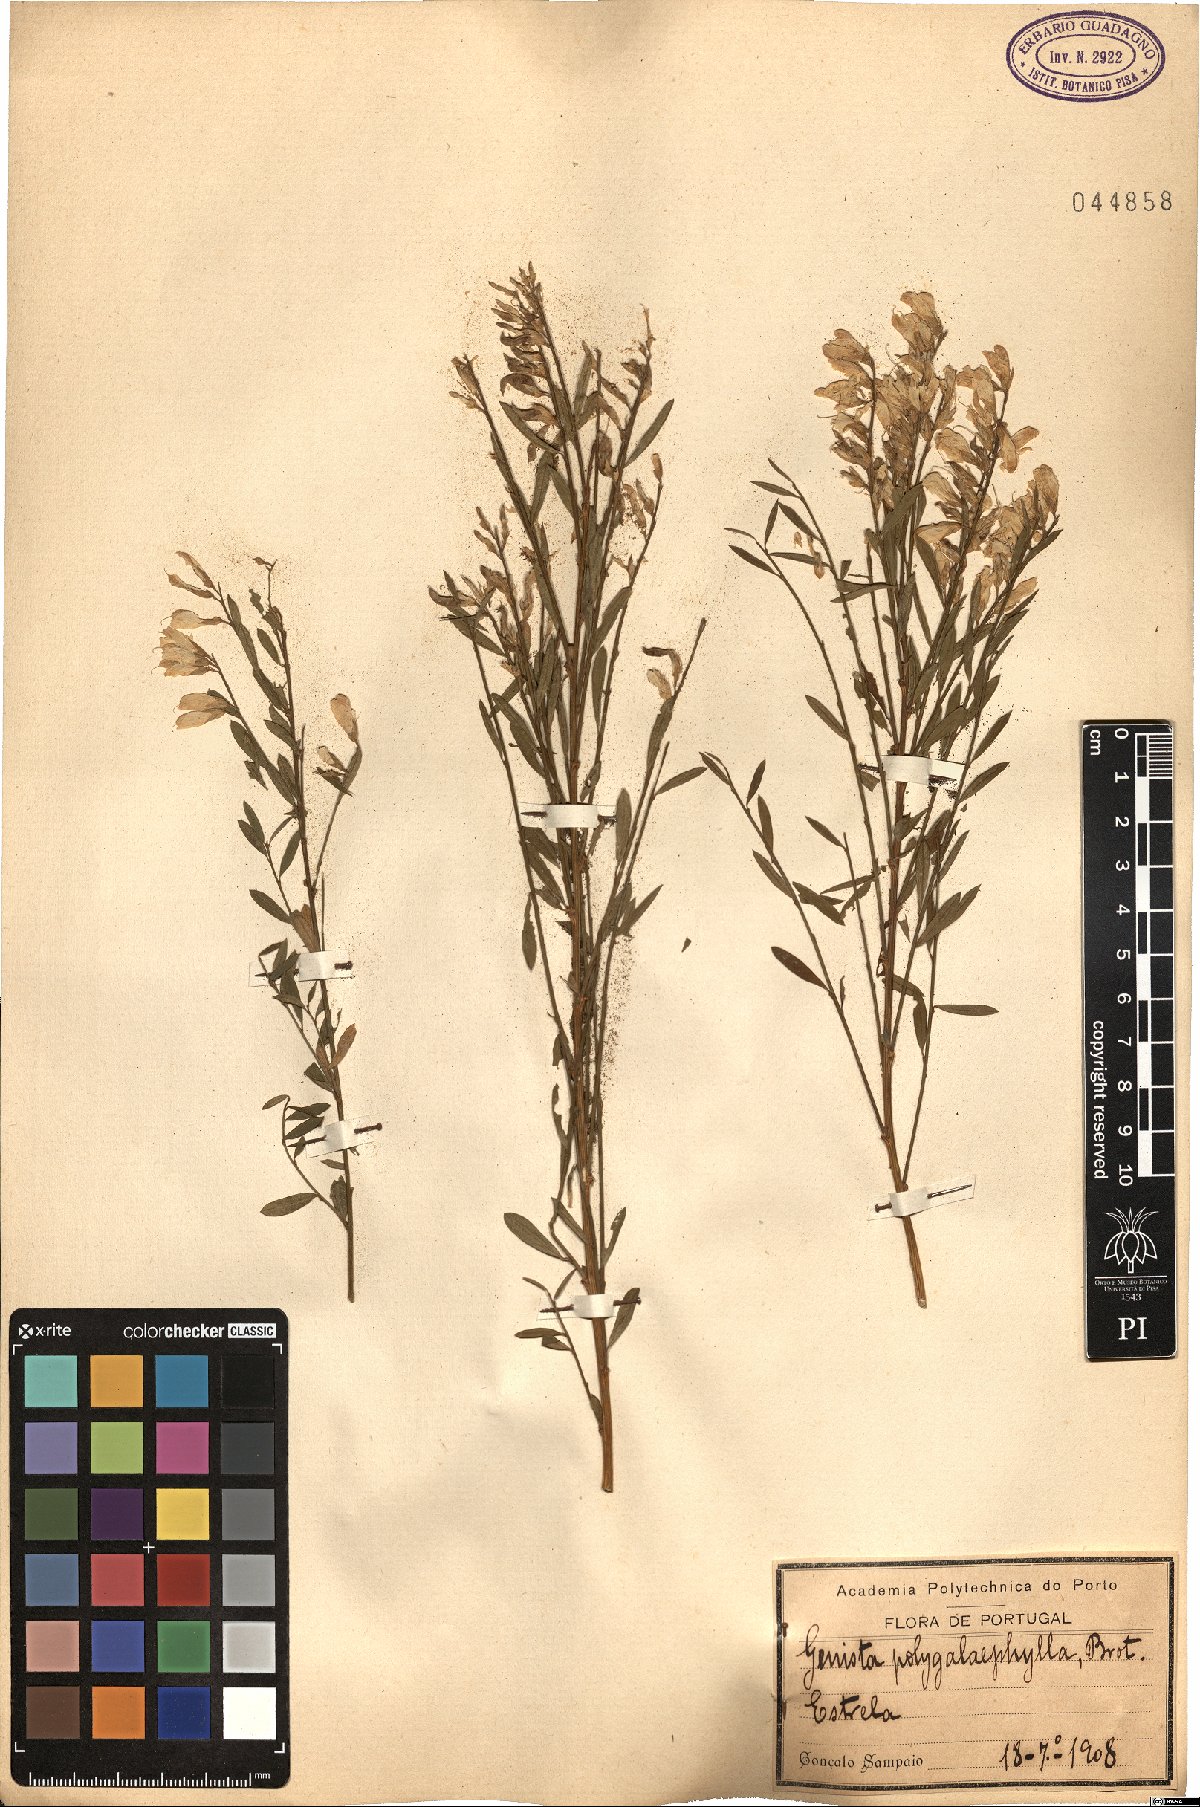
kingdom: Plantae
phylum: Tracheophyta
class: Magnoliopsida
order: Fabales
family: Fabaceae
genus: Genista
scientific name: Genista polygalaephylla
